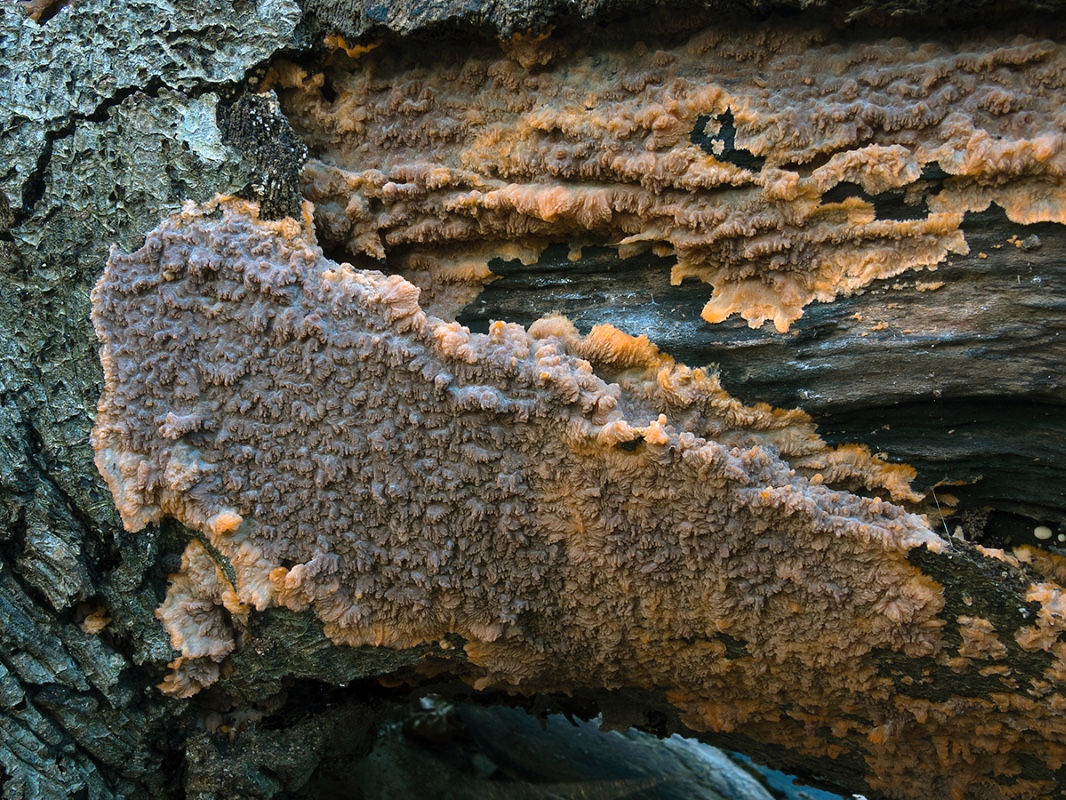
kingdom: Fungi
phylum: Basidiomycota
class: Agaricomycetes
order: Polyporales
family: Meruliaceae
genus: Phlebia
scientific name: Phlebia radiata
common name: stråle-åresvamp
